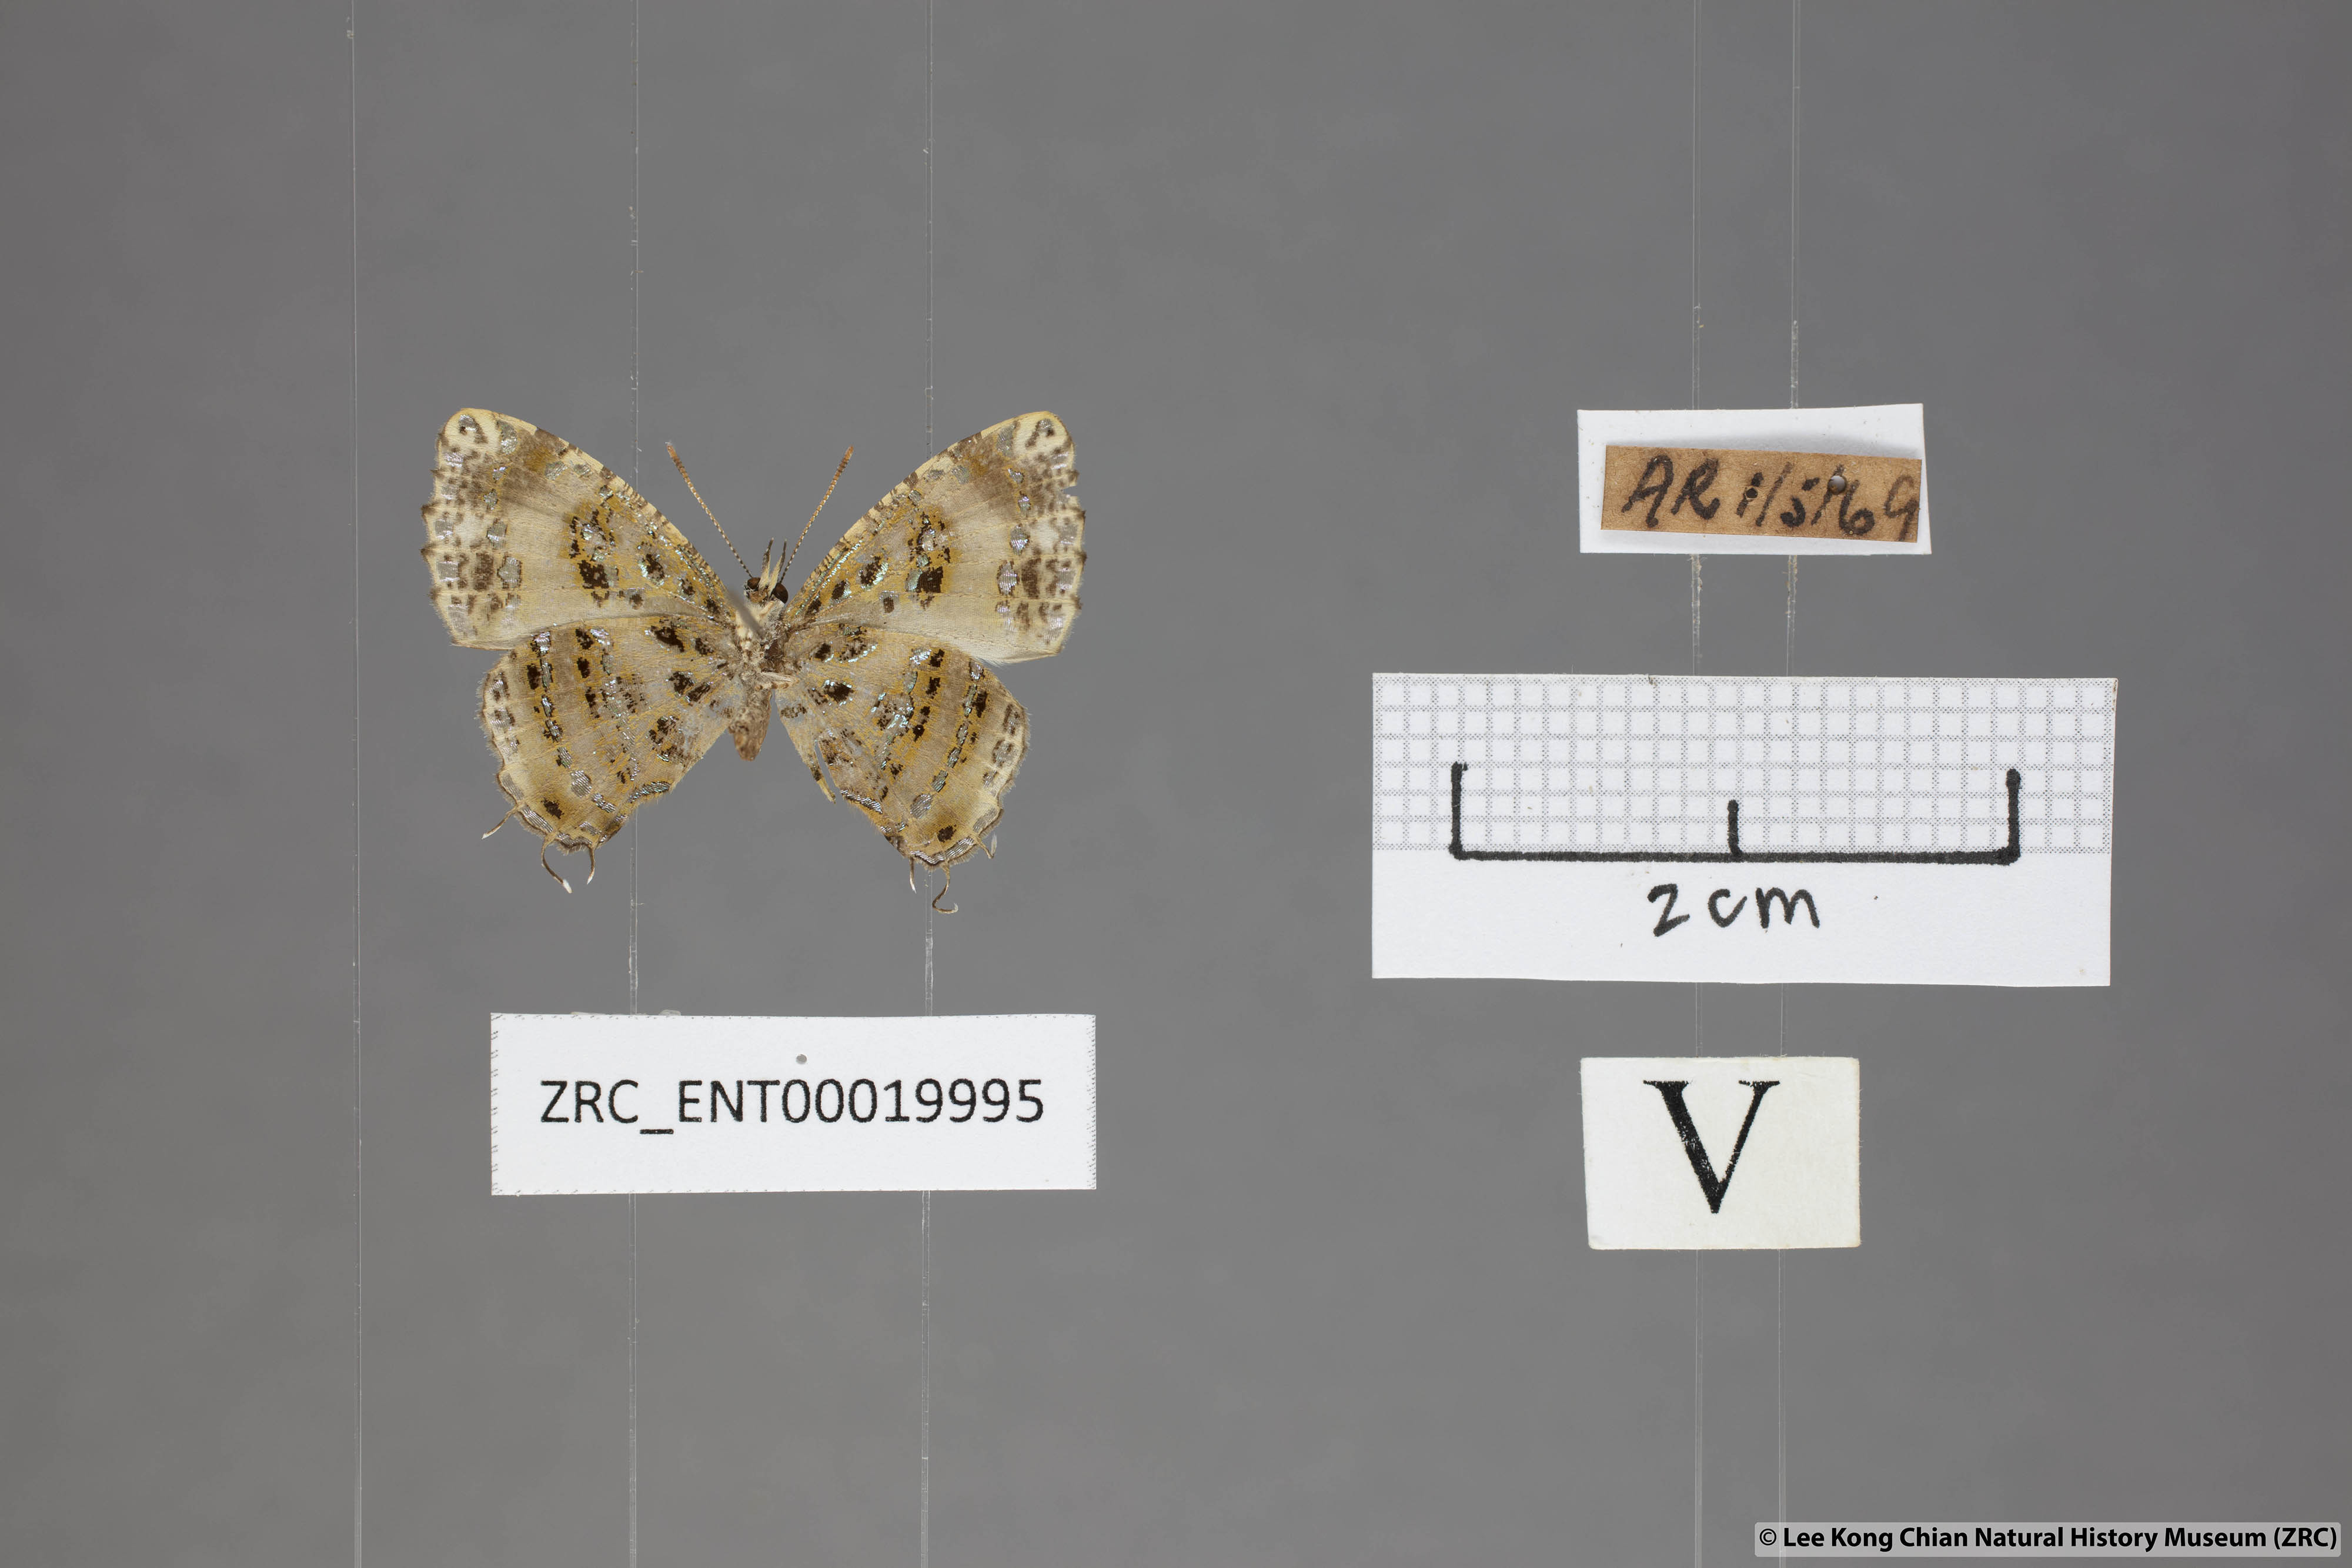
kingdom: Animalia
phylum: Arthropoda
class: Insecta
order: Lepidoptera
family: Lycaenidae
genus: Catapaecilma
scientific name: Catapaecilma elegans
